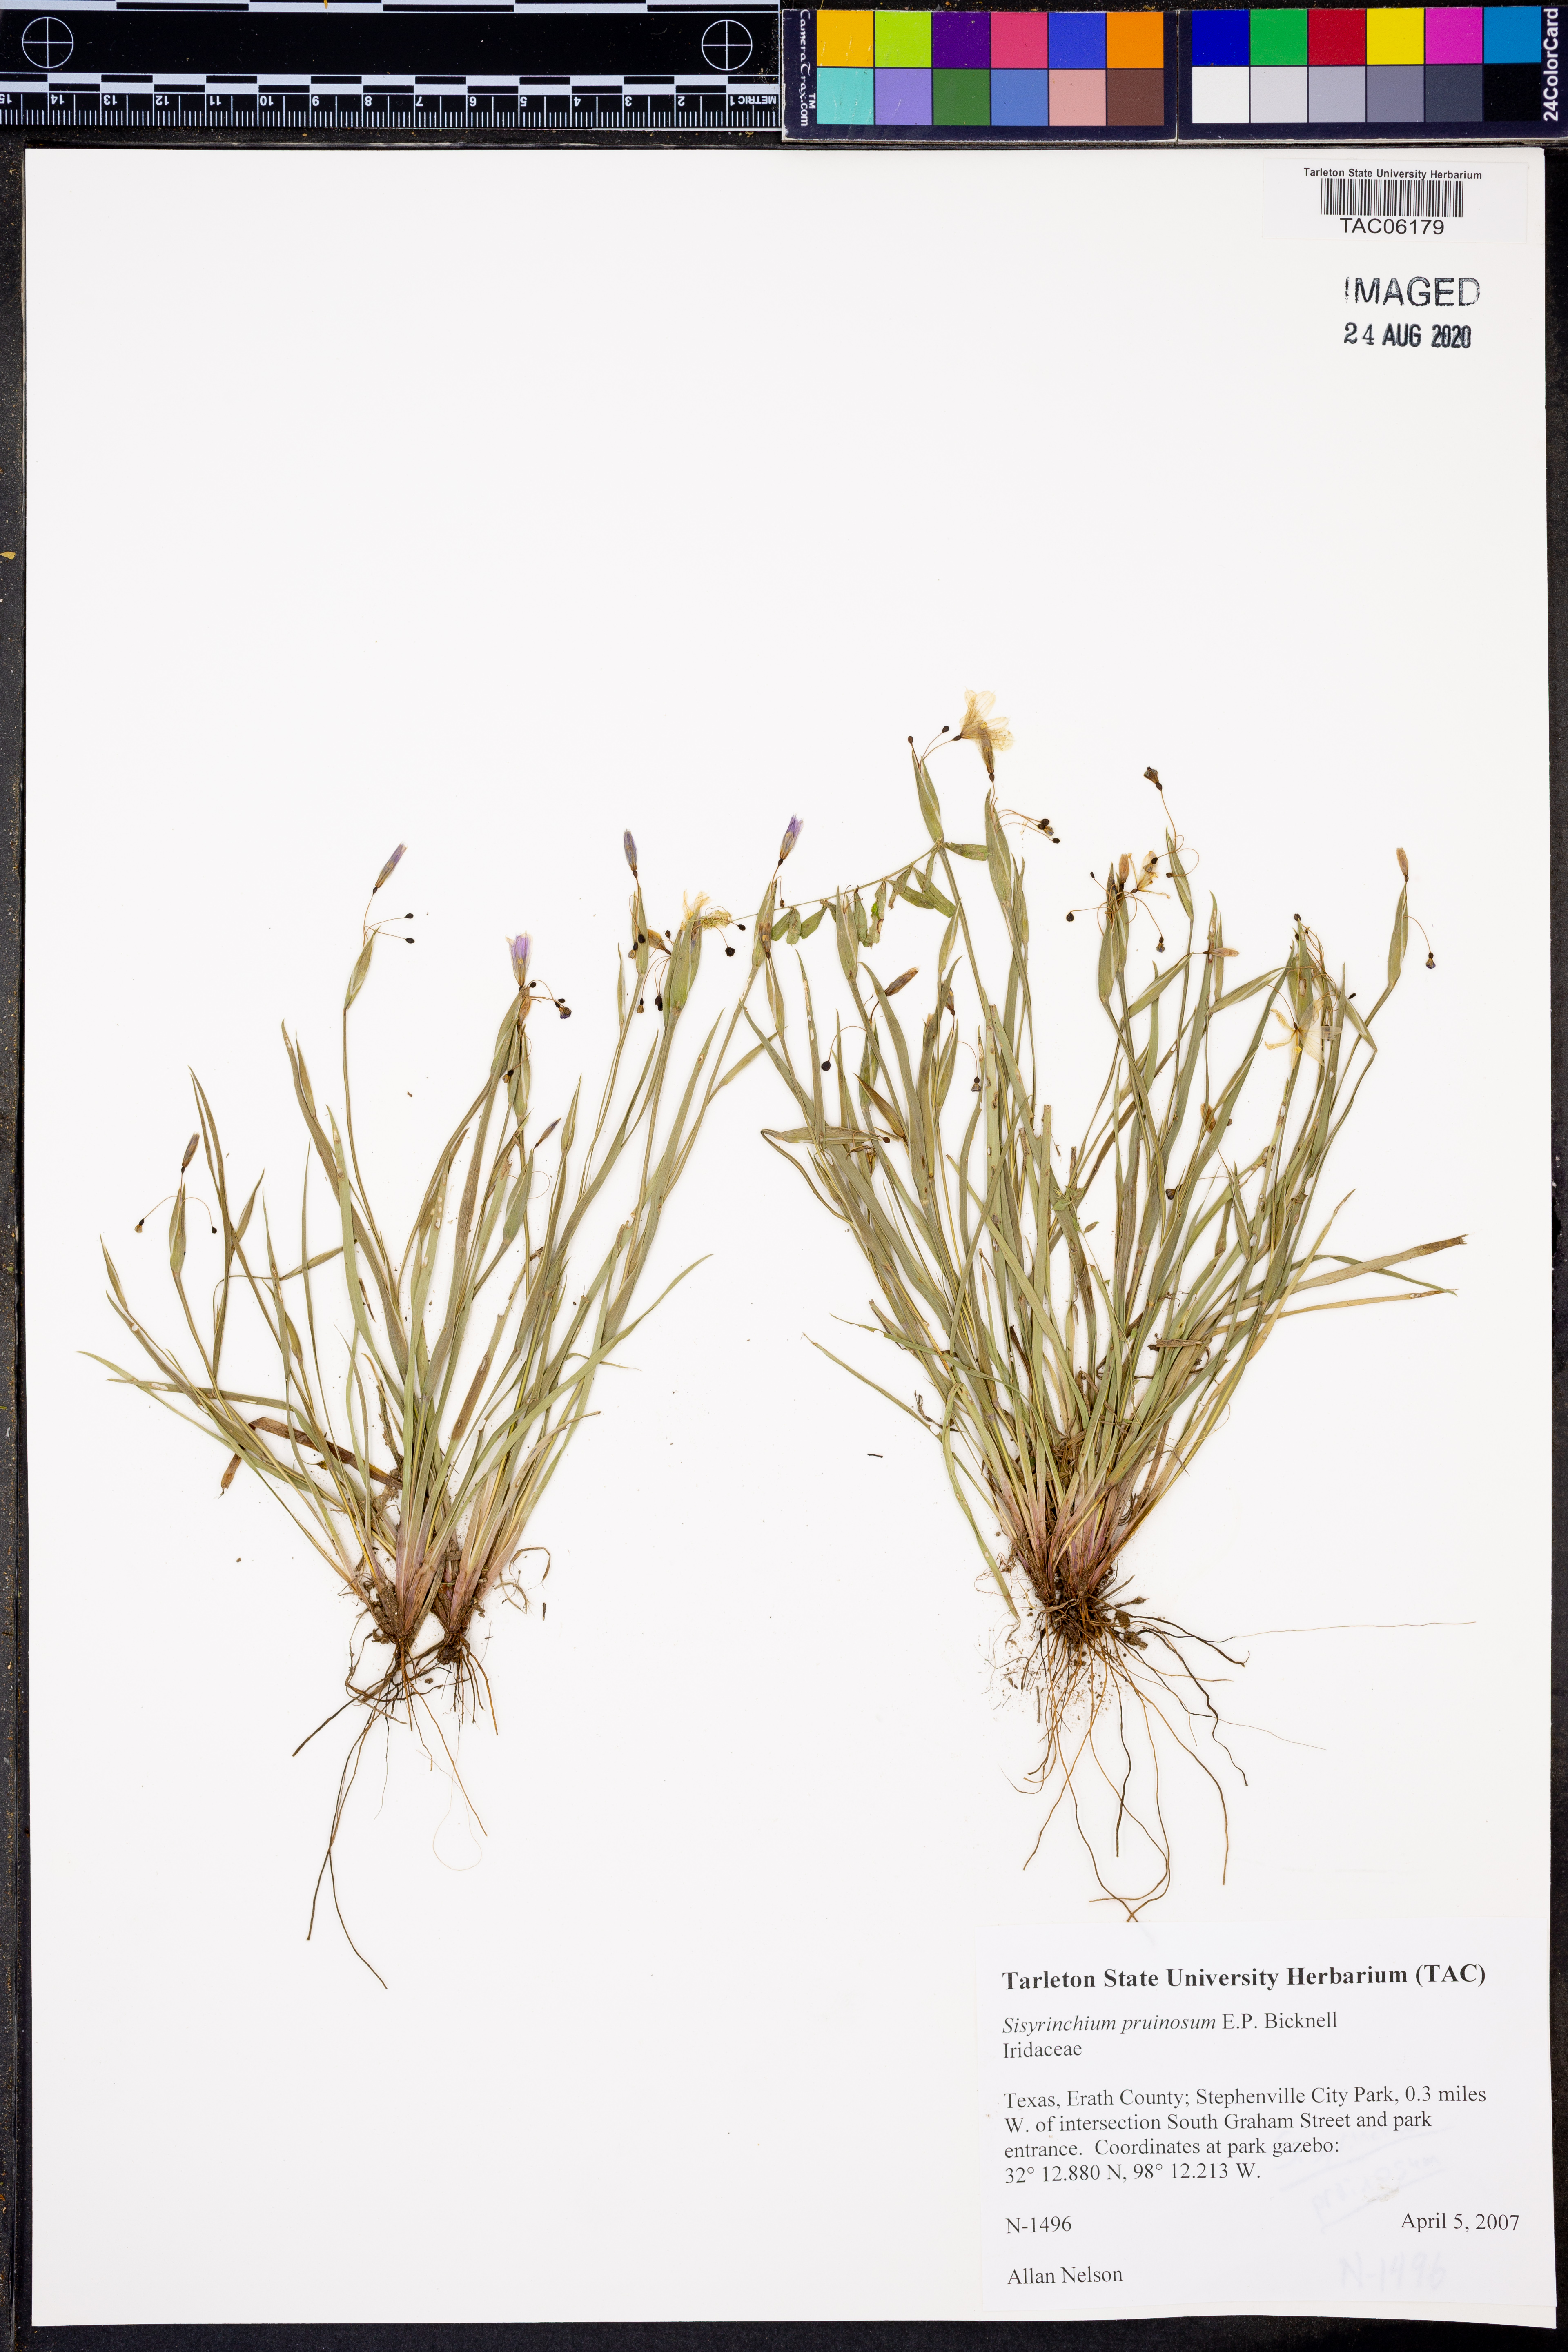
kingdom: Plantae
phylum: Tracheophyta
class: Liliopsida
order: Asparagales
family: Iridaceae
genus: Sisyrinchium
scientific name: Sisyrinchium pruinosum
